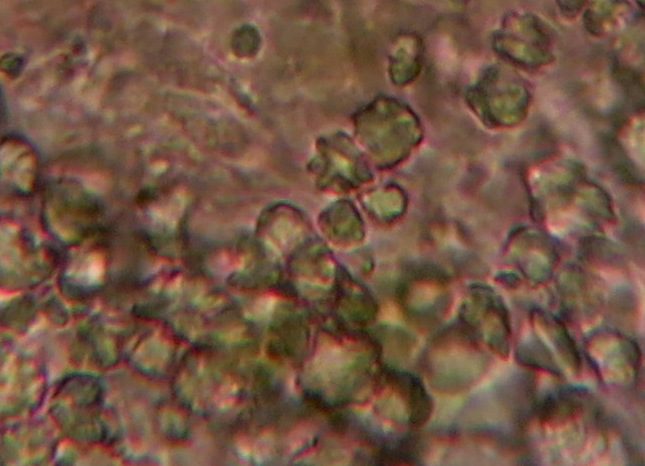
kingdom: Fungi
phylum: Basidiomycota
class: Agaricomycetes
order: Hymenochaetales
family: Schizoporaceae
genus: Xylodon
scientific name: Xylodon nesporii
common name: fintandet tandsvamp
